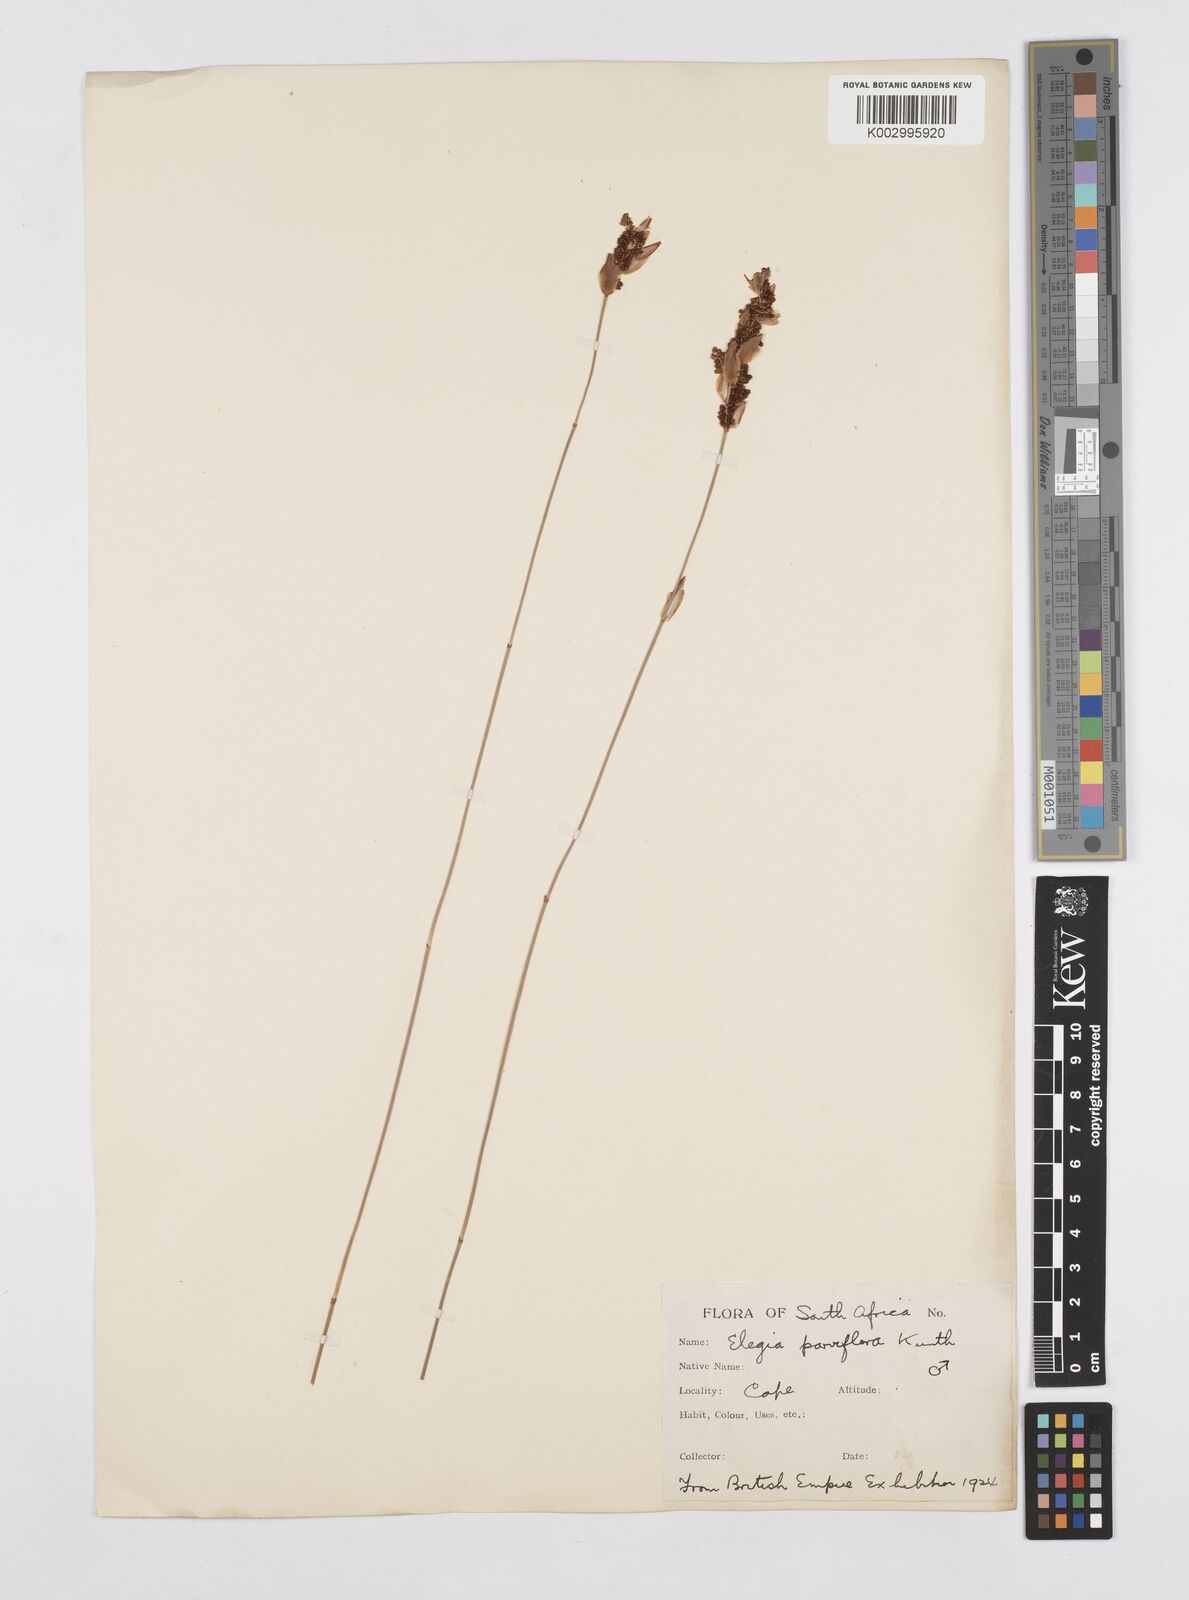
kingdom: Plantae
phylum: Tracheophyta
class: Liliopsida
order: Poales
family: Restionaceae
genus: Cannomois
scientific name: Cannomois parviflora
